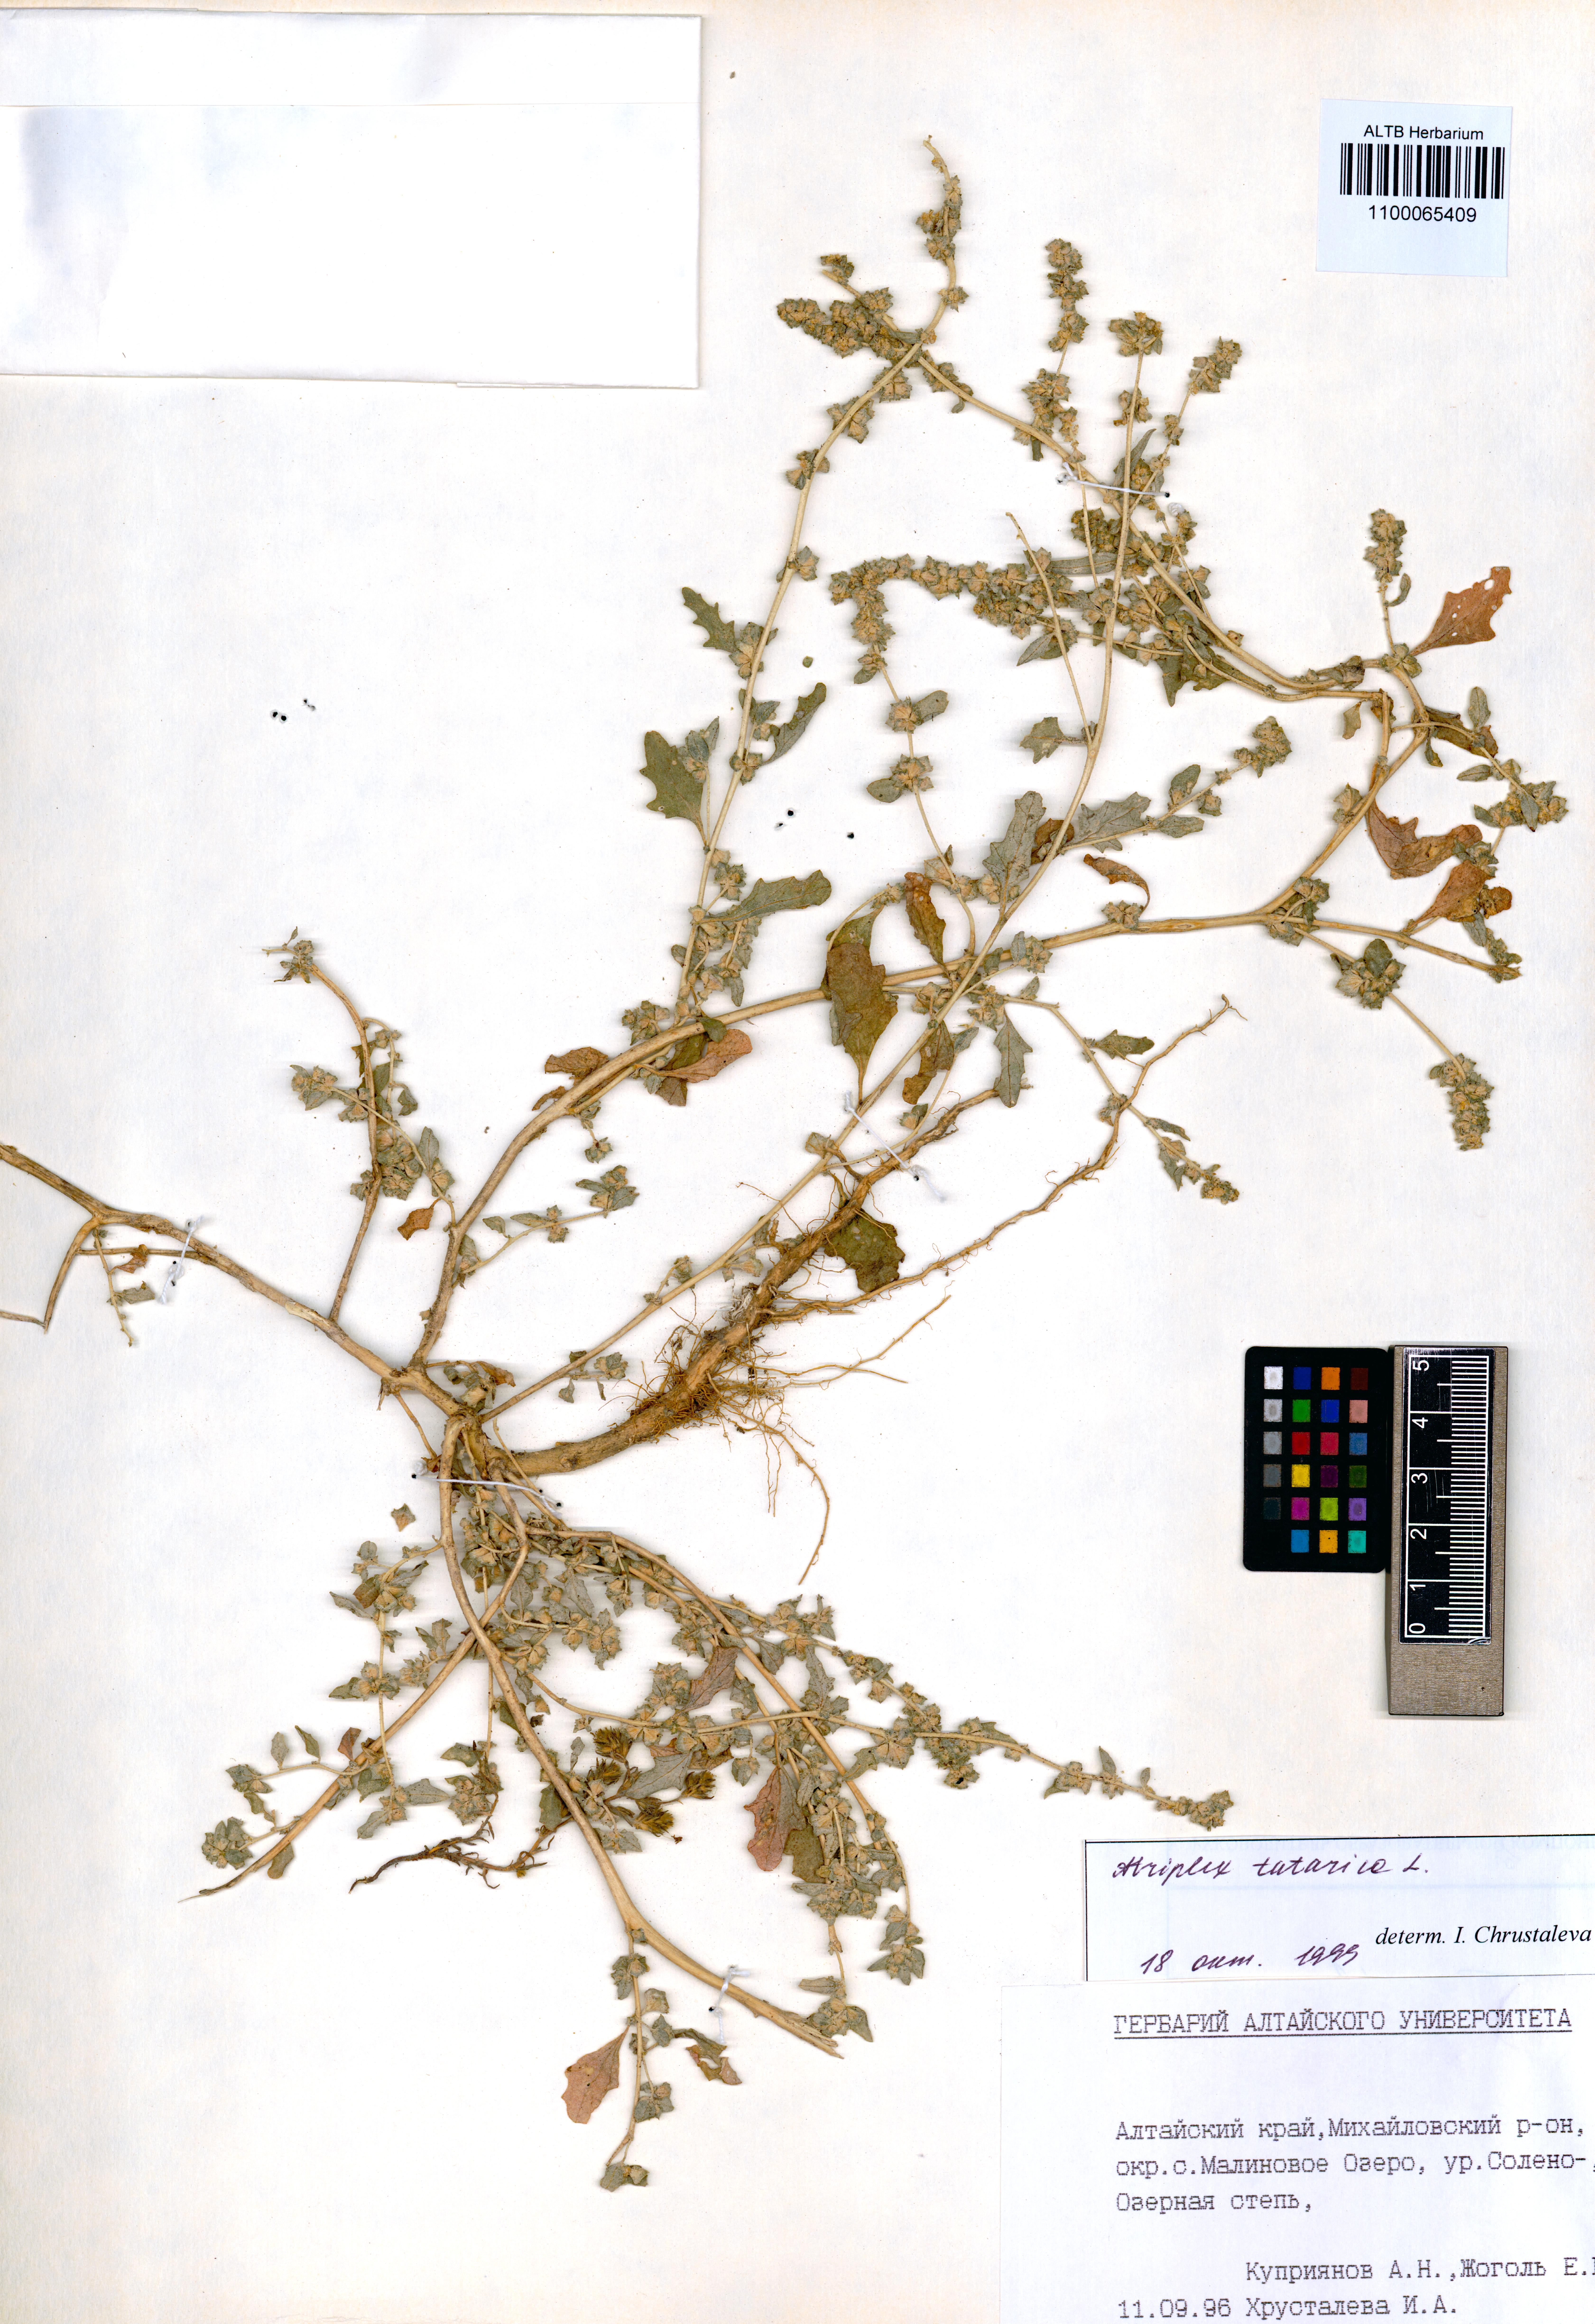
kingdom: Plantae
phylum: Tracheophyta
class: Magnoliopsida
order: Caryophyllales
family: Amaranthaceae
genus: Atriplex
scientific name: Atriplex tatarica
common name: Tatarian orache
